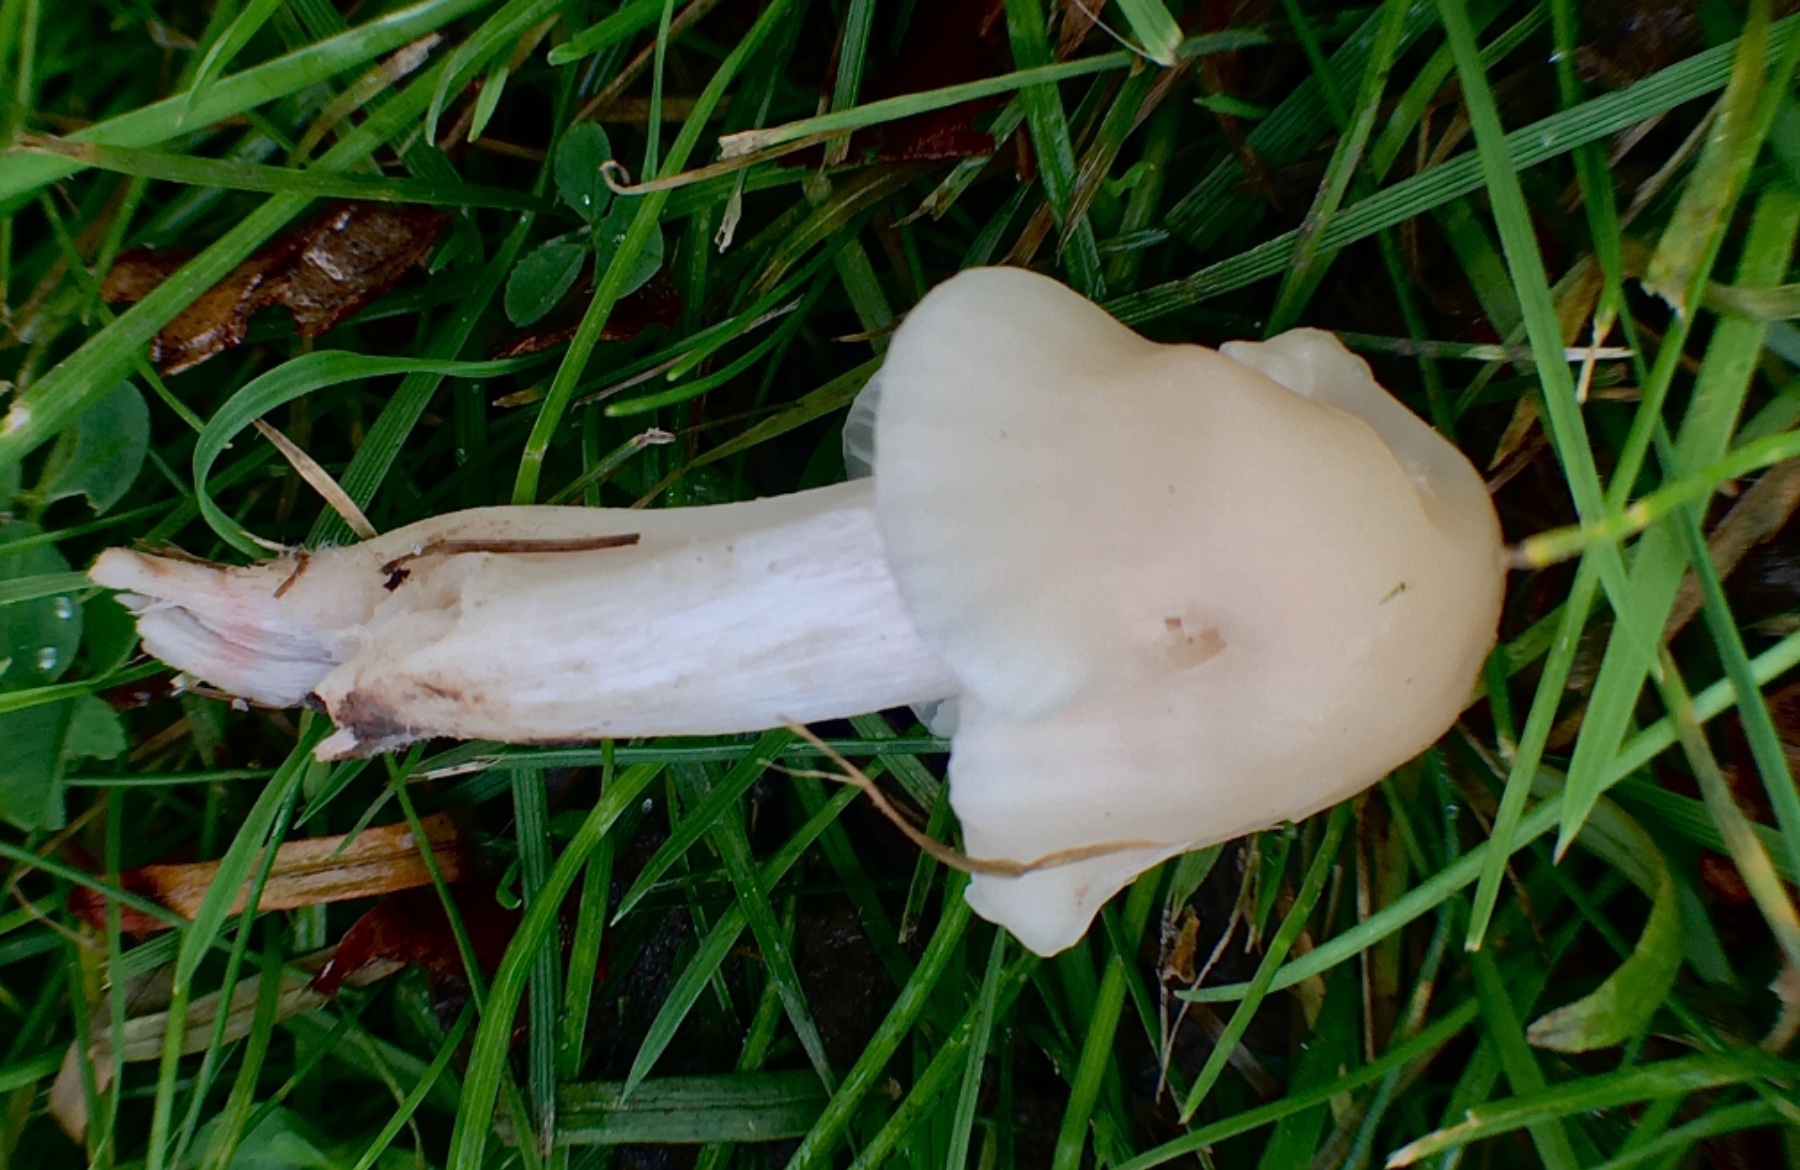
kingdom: Fungi
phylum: Basidiomycota
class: Agaricomycetes
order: Agaricales
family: Hygrophoraceae
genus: Cuphophyllus
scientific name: Cuphophyllus virgineus
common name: isabella-vokshat
